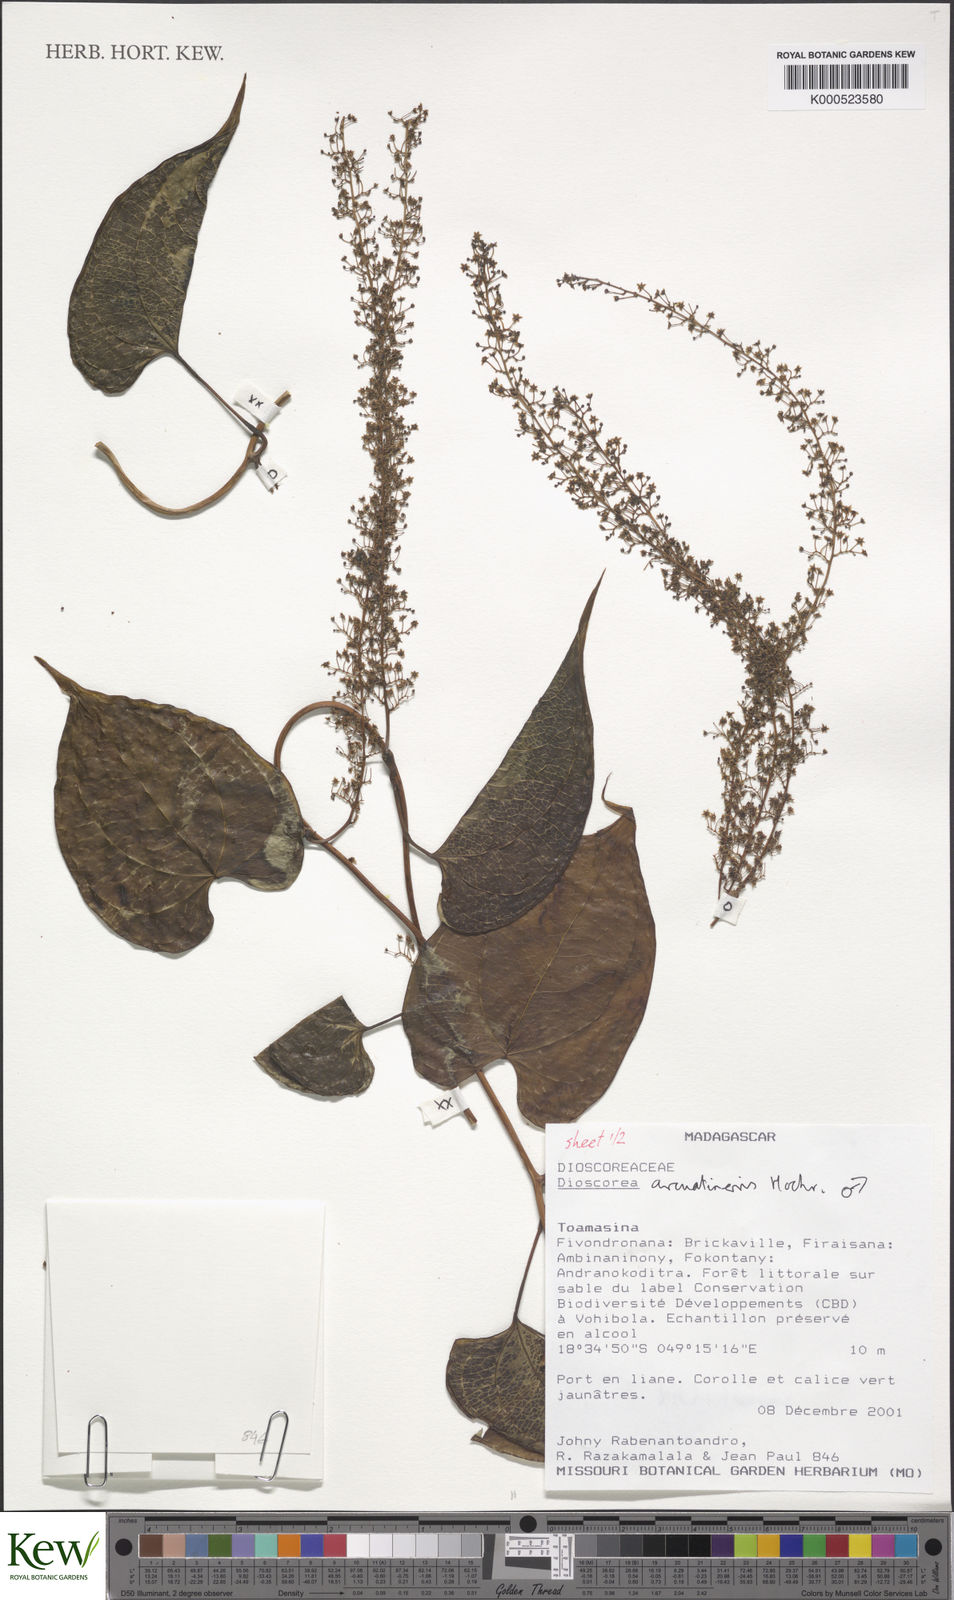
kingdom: Plantae
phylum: Tracheophyta
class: Liliopsida
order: Dioscoreales
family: Dioscoreaceae
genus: Dioscorea
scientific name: Dioscorea arcuatinervis
